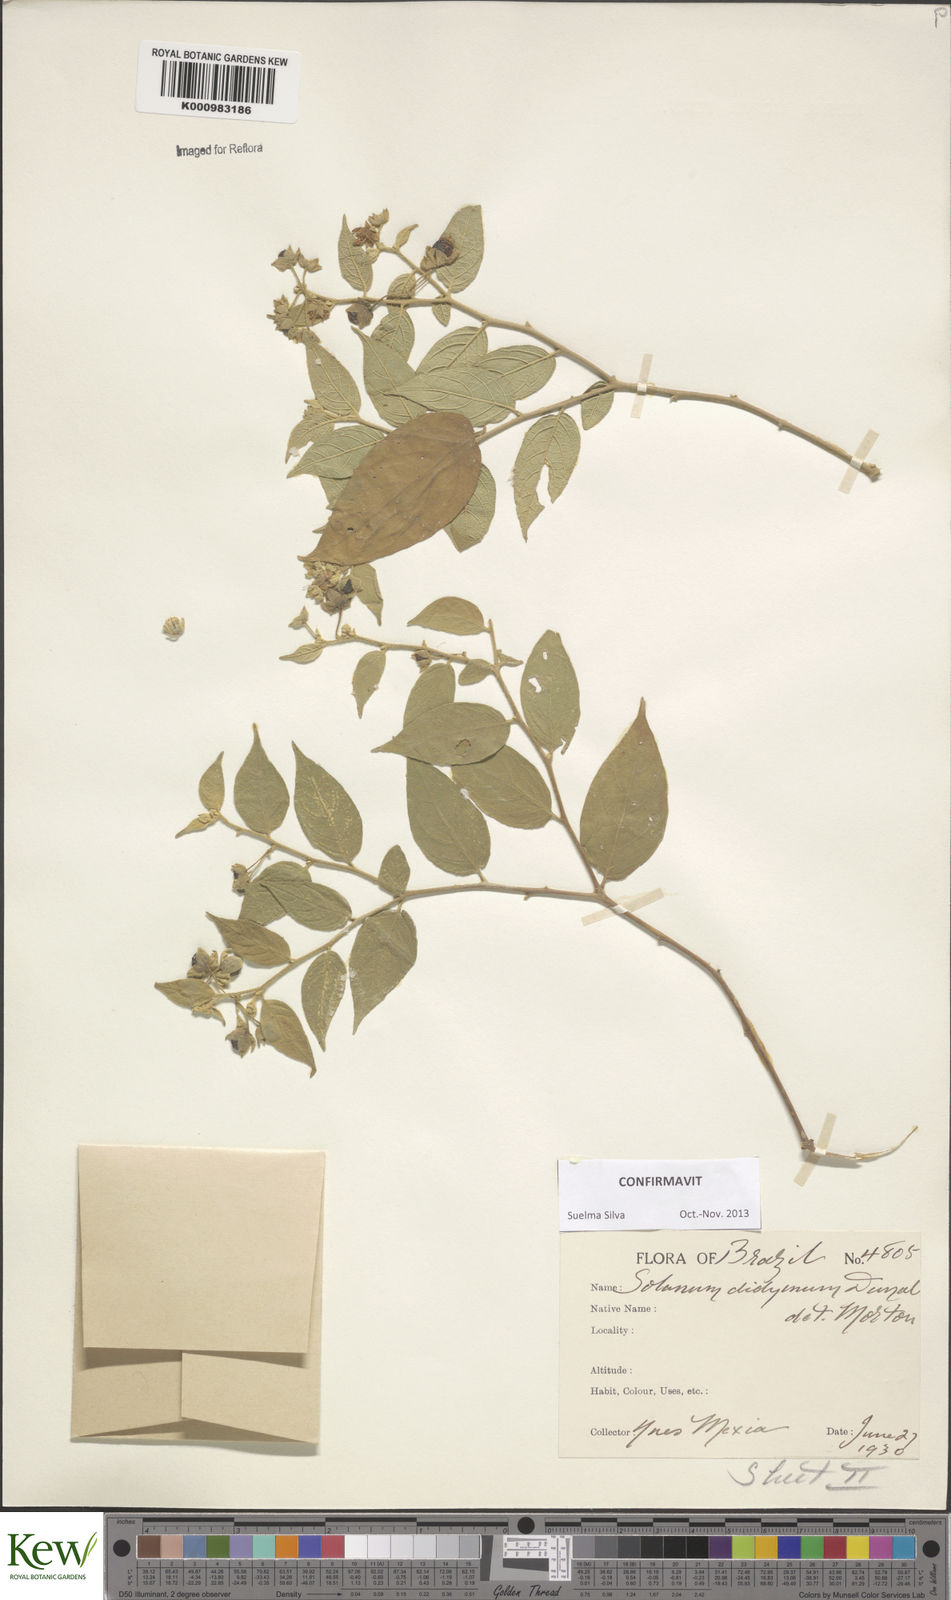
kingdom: Plantae
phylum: Tracheophyta
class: Magnoliopsida
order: Solanales
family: Solanaceae
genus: Solanum
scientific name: Solanum didymum
